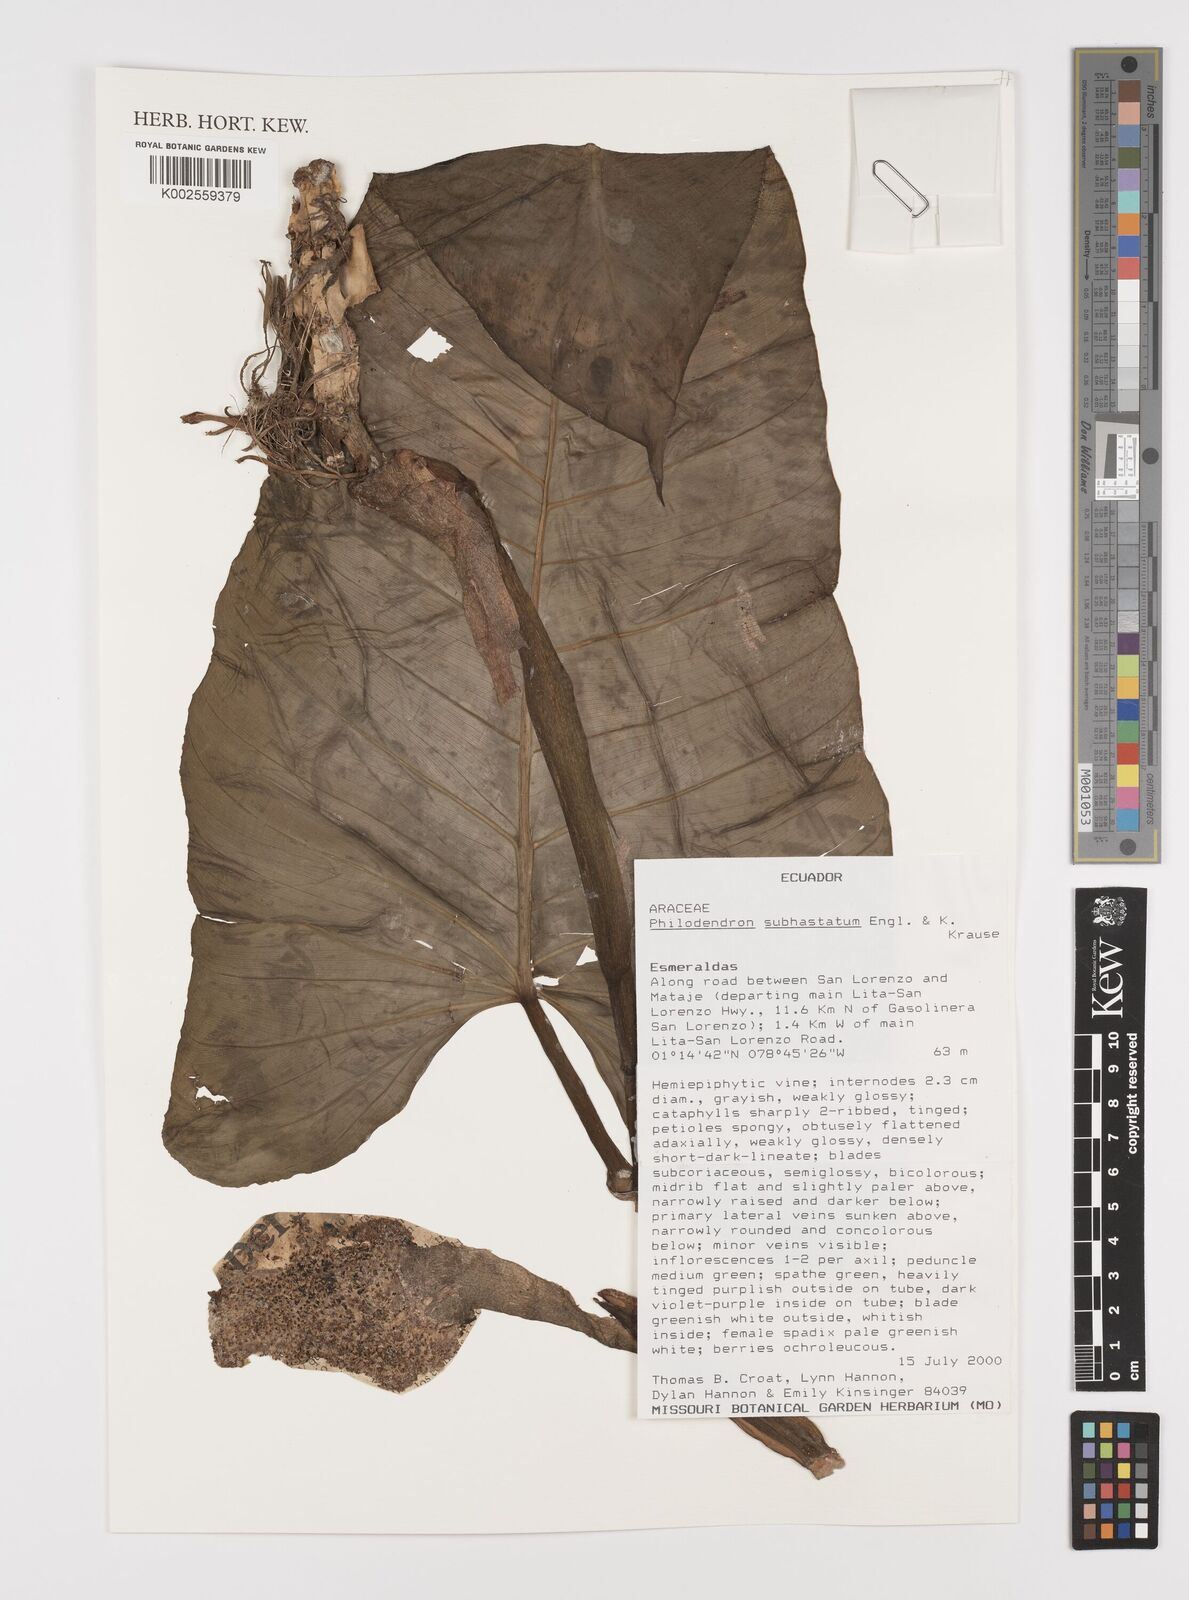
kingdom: Plantae
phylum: Tracheophyta
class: Liliopsida
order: Alismatales
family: Araceae
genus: Philodendron
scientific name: Philodendron subhastatum
